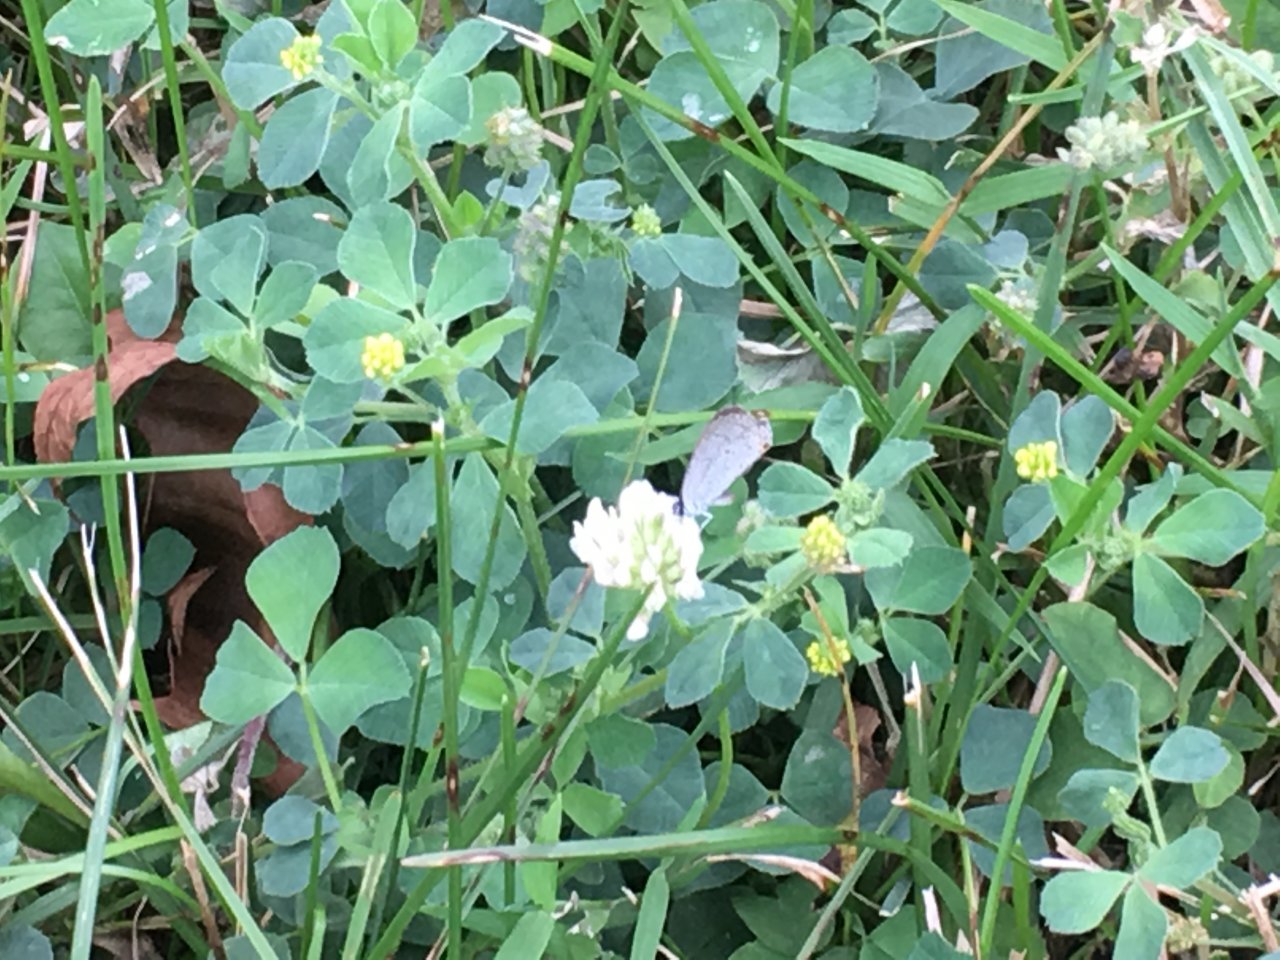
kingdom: Animalia
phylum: Arthropoda
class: Insecta
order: Lepidoptera
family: Lycaenidae
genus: Celastrina
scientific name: Celastrina
